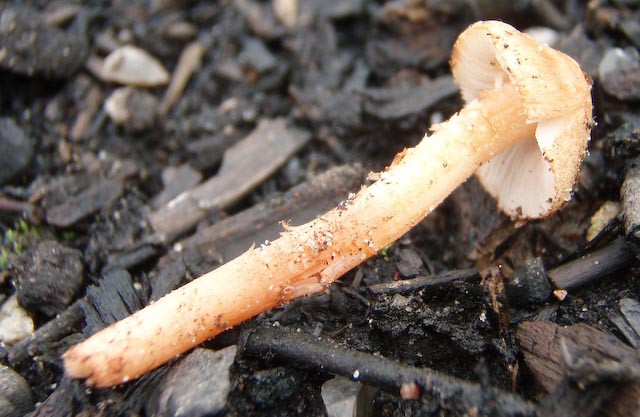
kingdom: Fungi
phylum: Basidiomycota
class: Agaricomycetes
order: Agaricales
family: Inocybaceae
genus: Inocybe
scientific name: Inocybe
